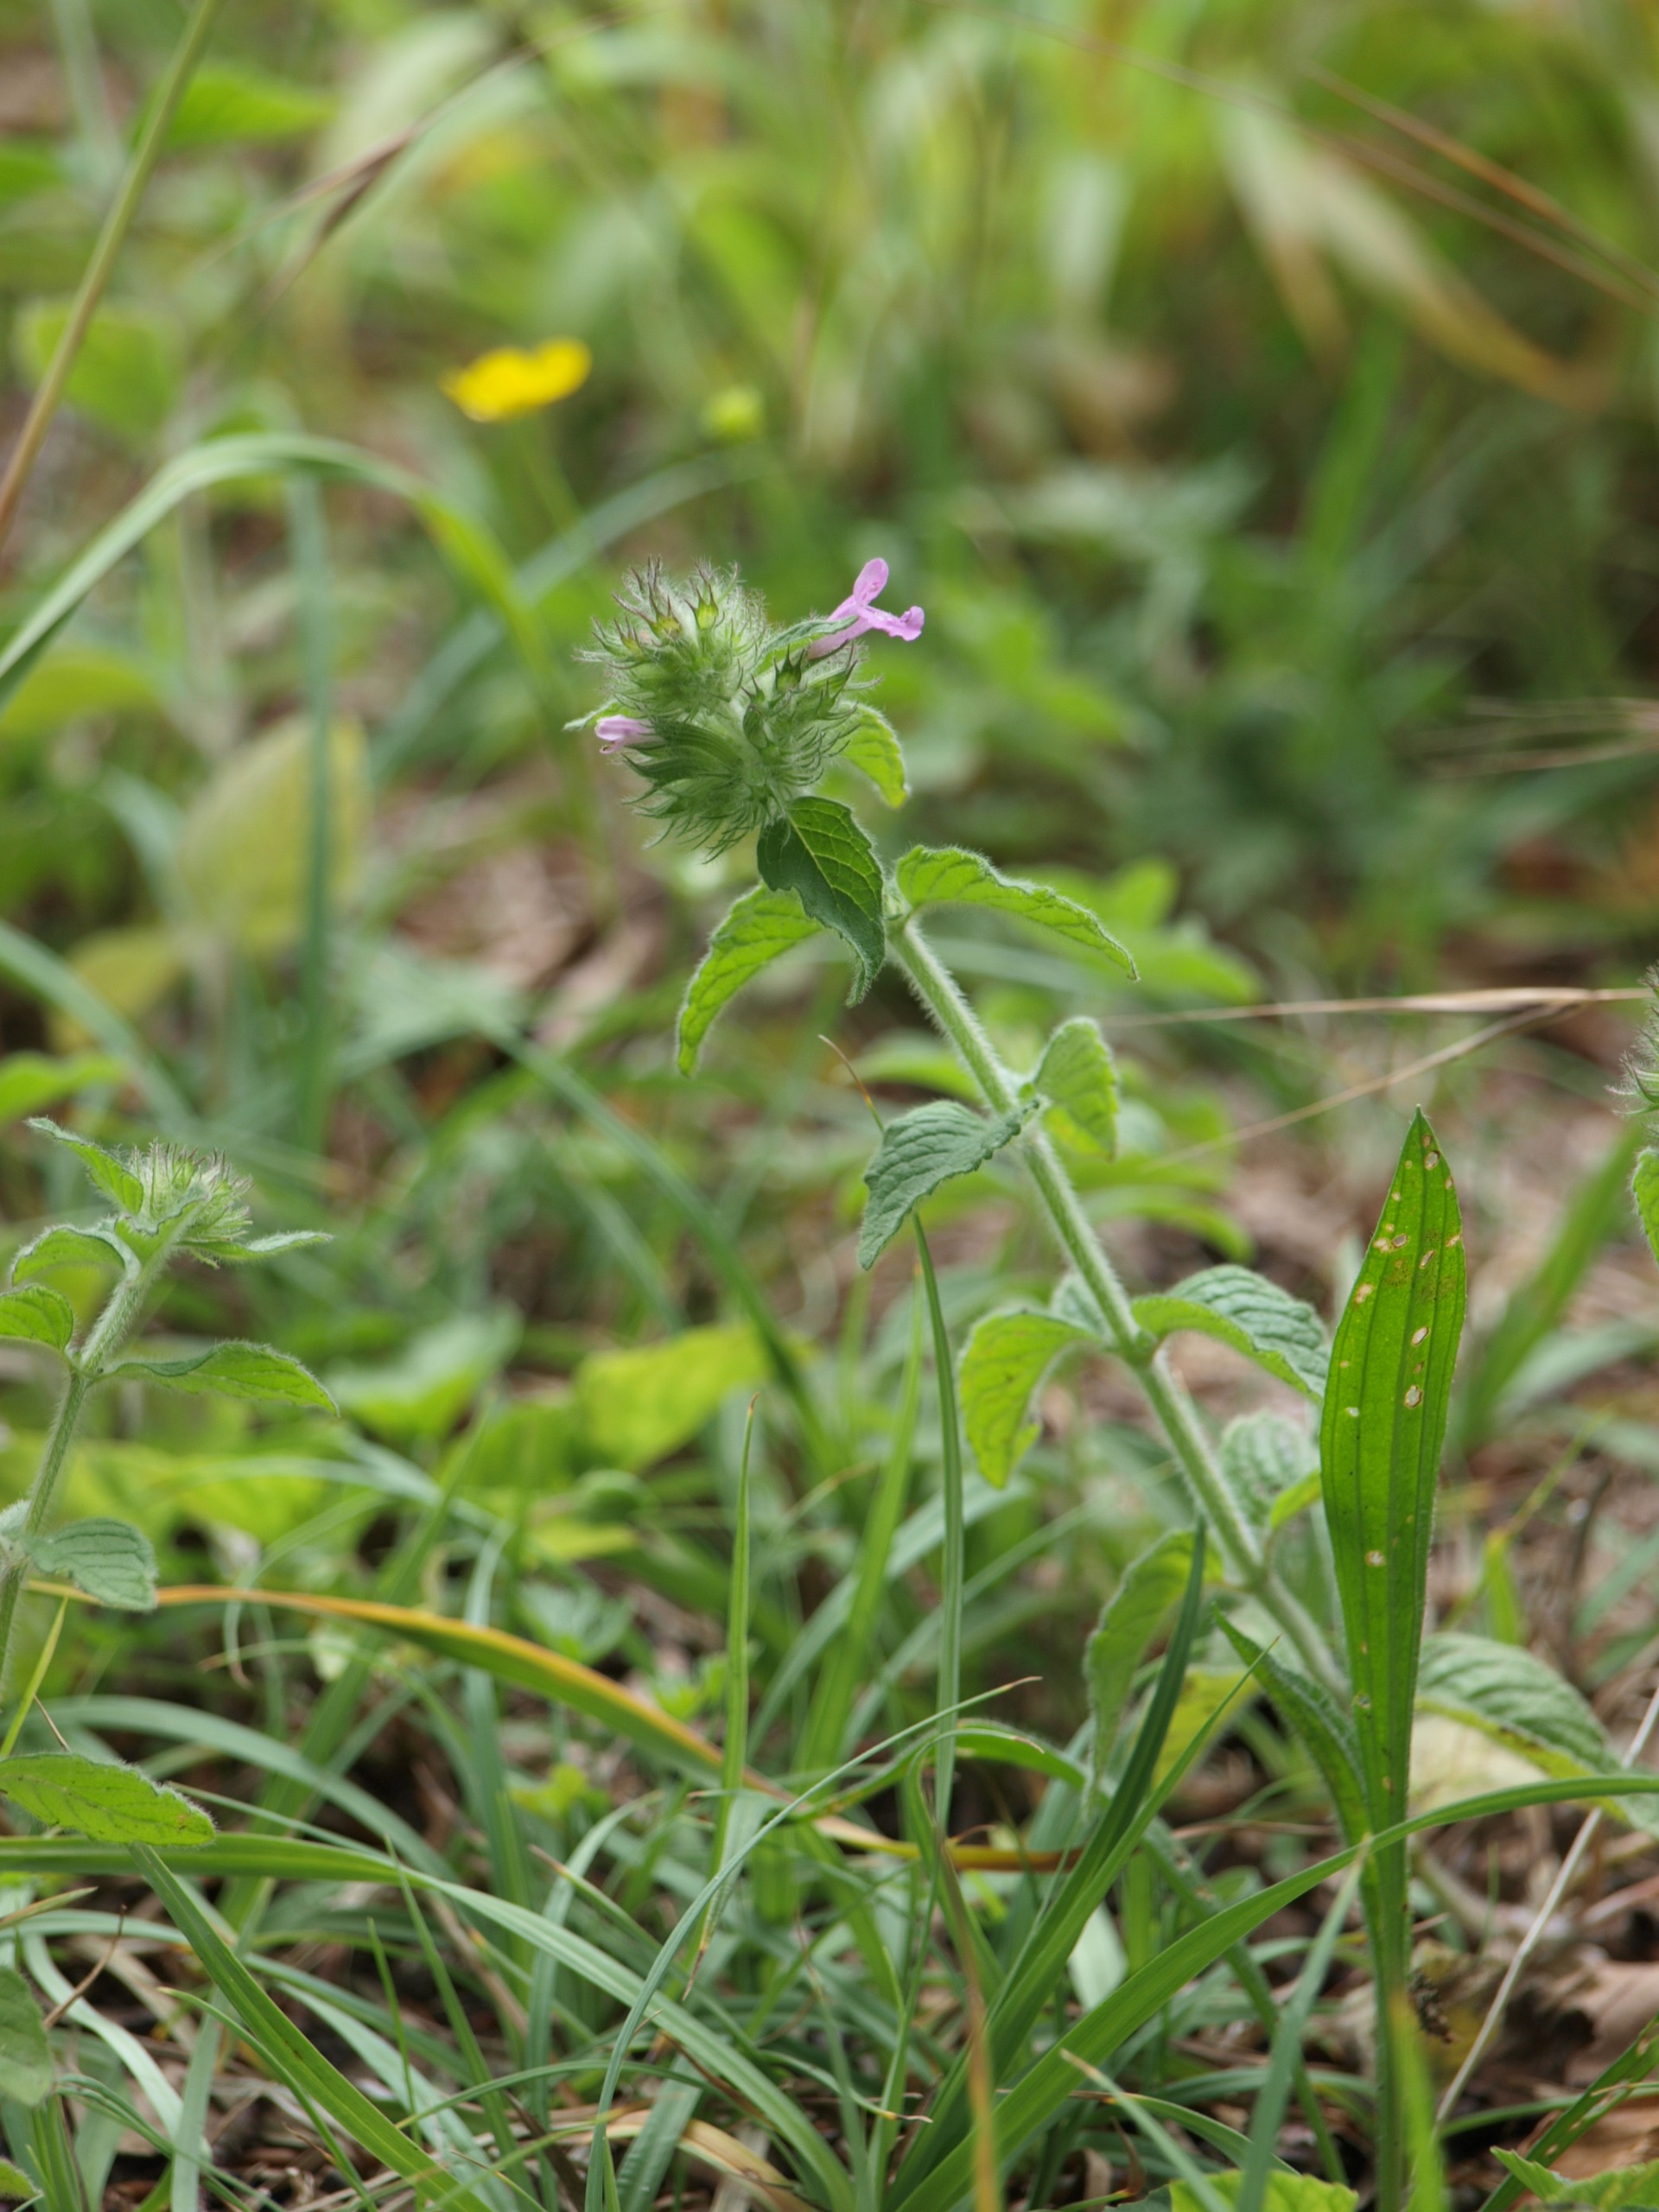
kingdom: Plantae
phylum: Tracheophyta
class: Magnoliopsida
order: Lamiales
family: Lamiaceae
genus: Clinopodium
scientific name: Clinopodium vulgare
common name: Kransbørste
